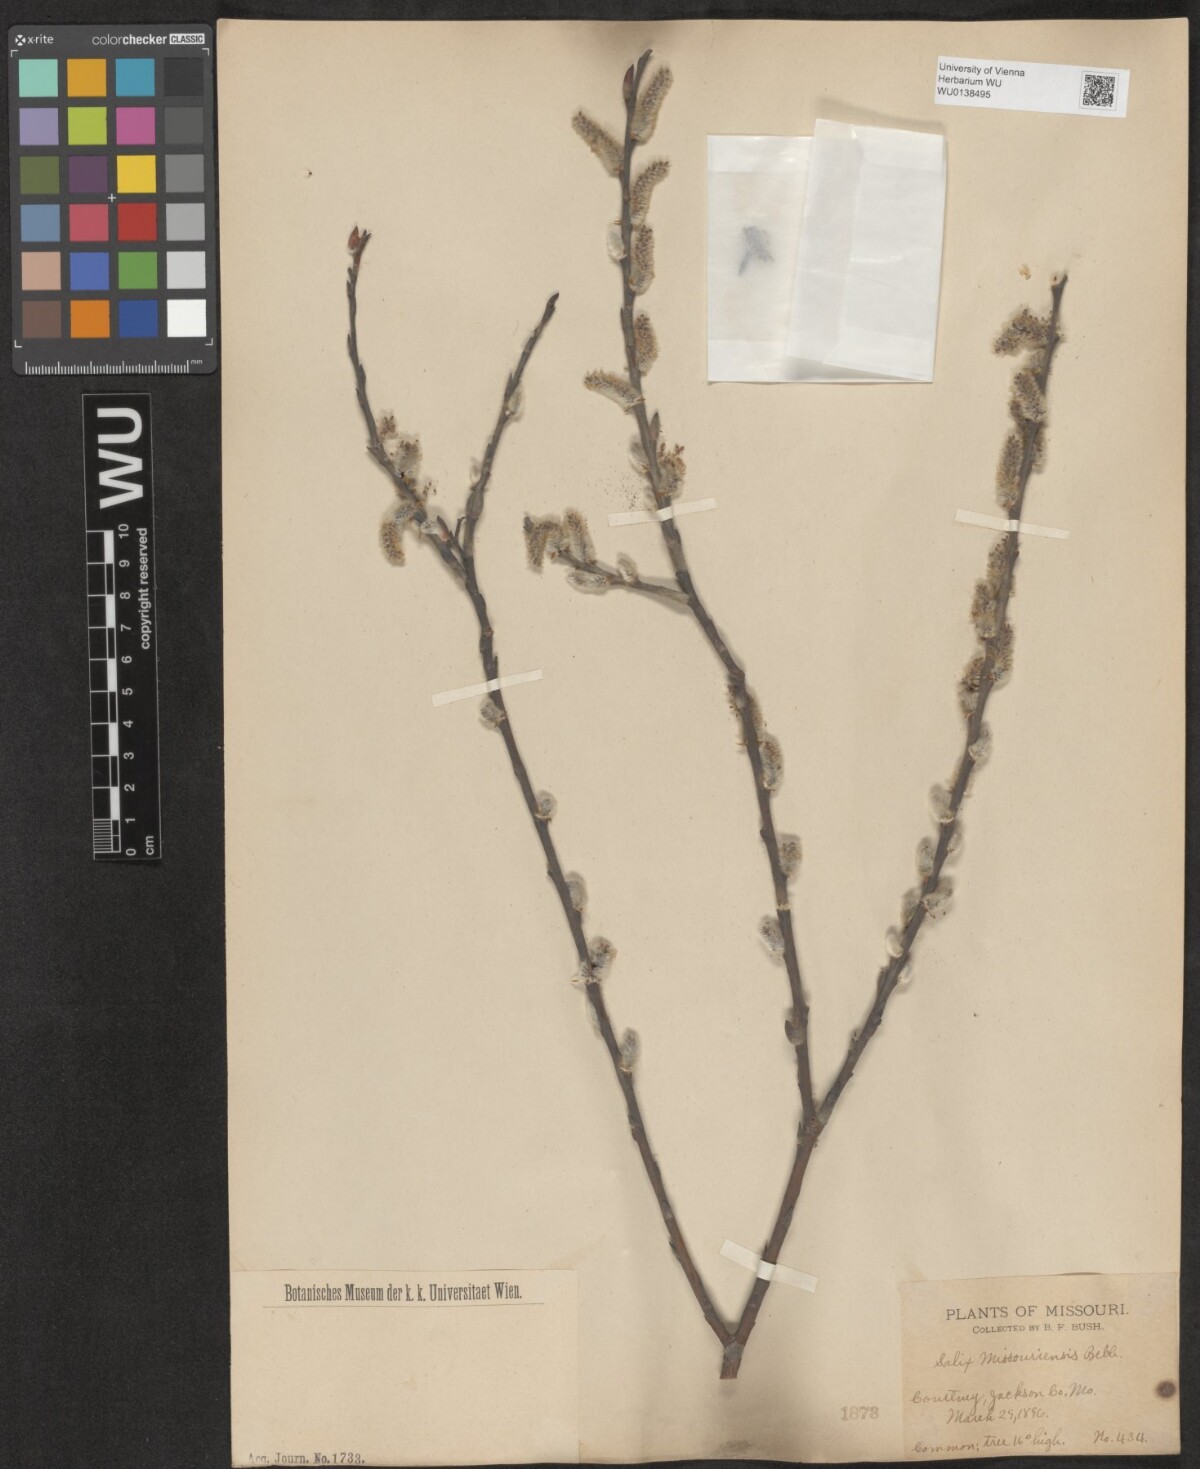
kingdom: Plantae
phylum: Tracheophyta
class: Magnoliopsida
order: Malpighiales
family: Salicaceae
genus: Salix
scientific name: Salix eriocephala
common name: Heart-leaved willow
